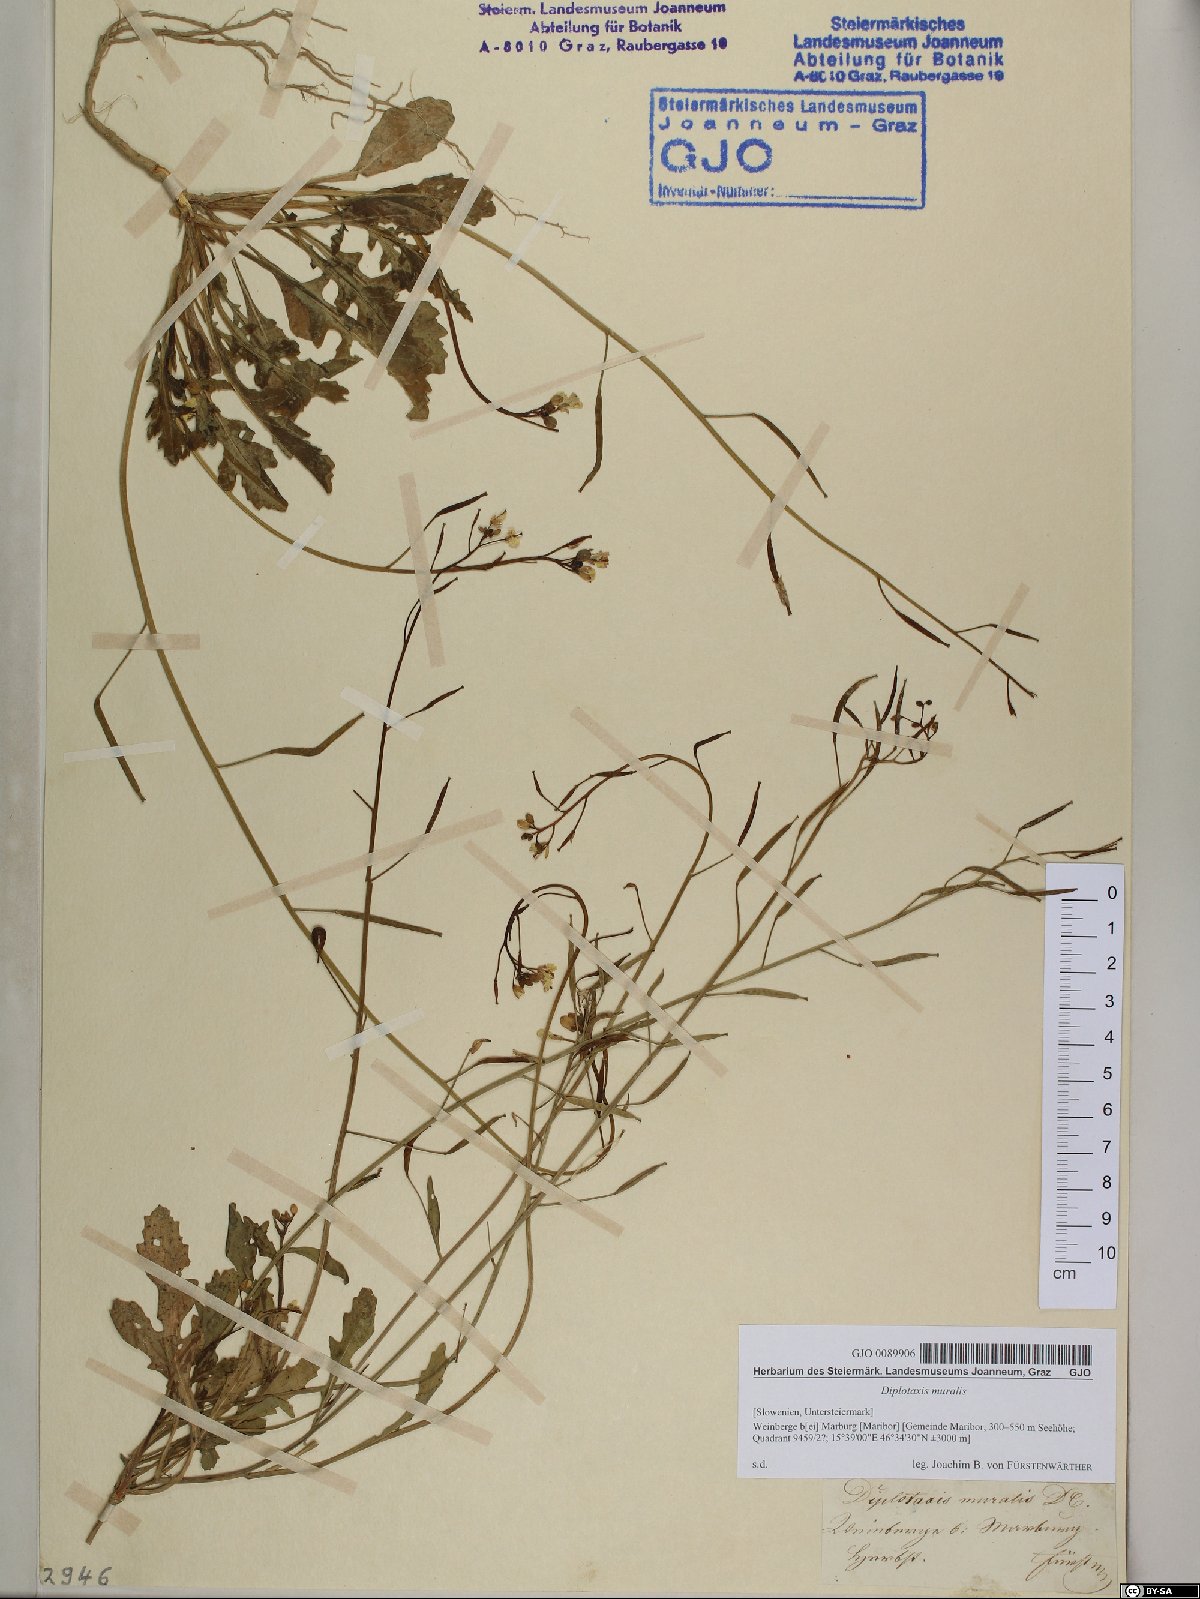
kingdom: Plantae
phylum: Tracheophyta
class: Magnoliopsida
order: Brassicales
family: Brassicaceae
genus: Diplotaxis
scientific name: Diplotaxis muralis
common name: Annual wall-rocket
